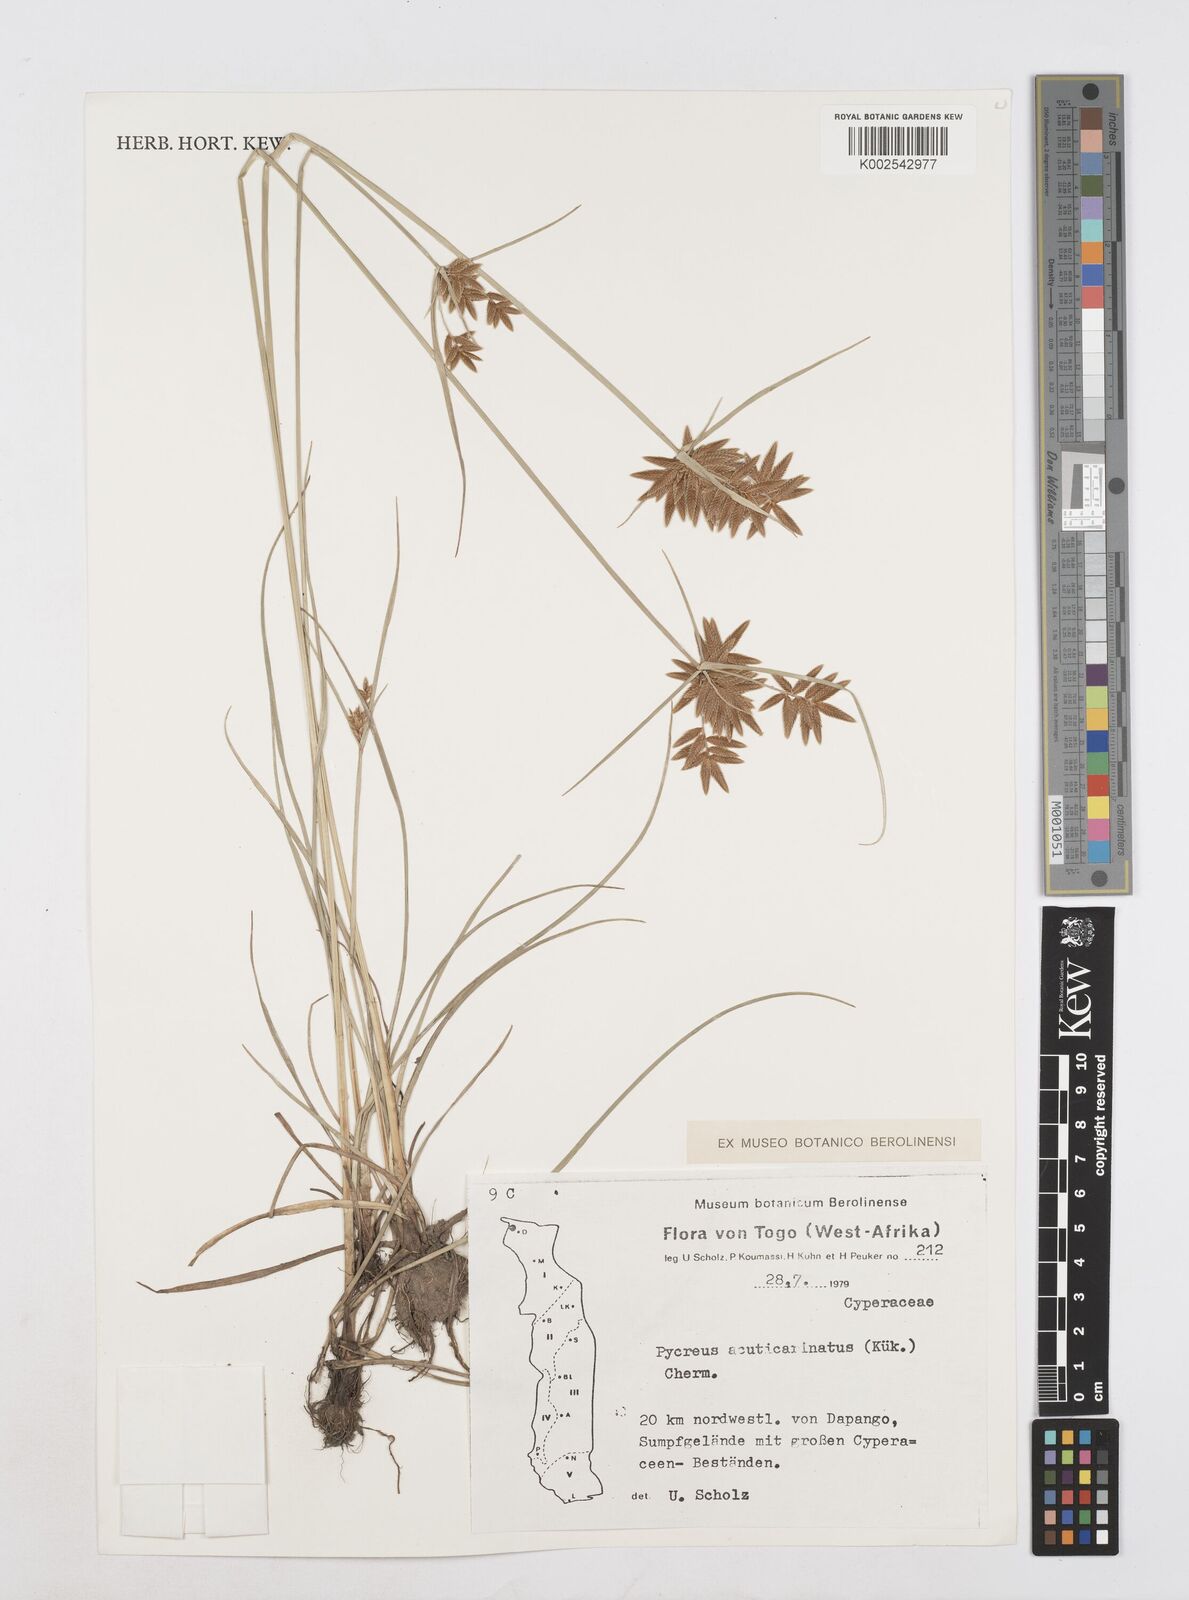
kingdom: Plantae
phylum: Tracheophyta
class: Liliopsida
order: Poales
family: Cyperaceae
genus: Cyperus
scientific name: Cyperus acuticarinatus
